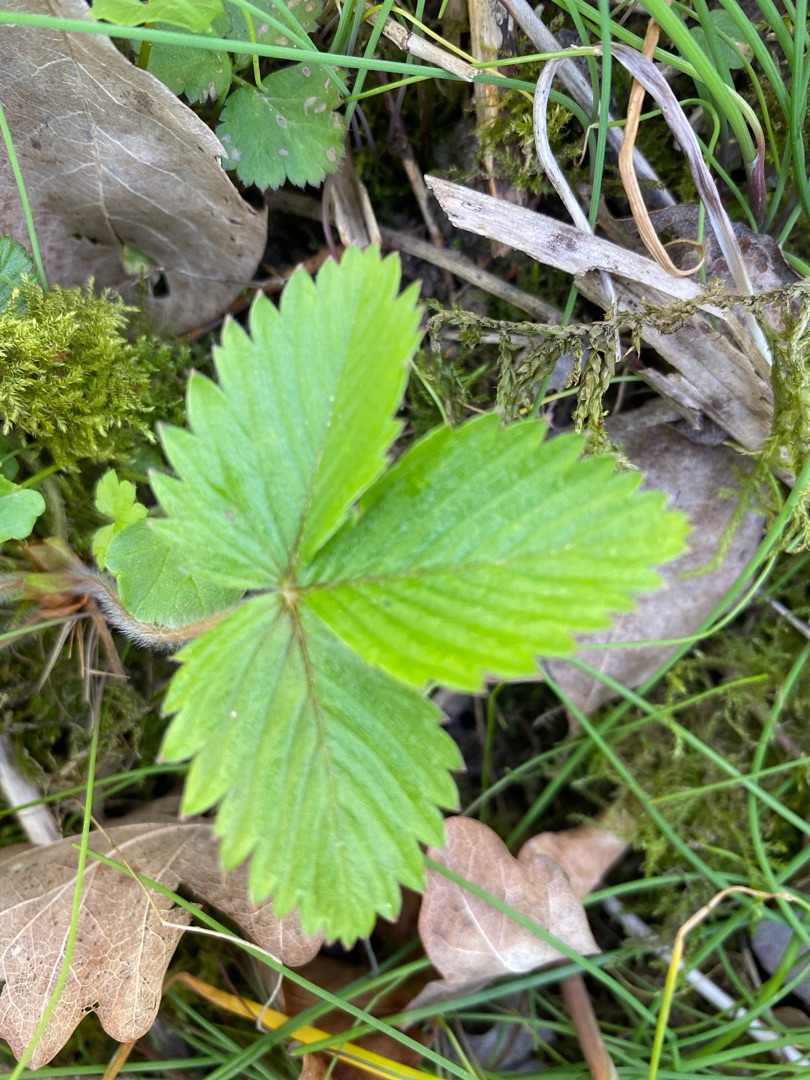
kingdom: Plantae
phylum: Tracheophyta
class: Magnoliopsida
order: Rosales
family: Rosaceae
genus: Fragaria
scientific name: Fragaria vesca
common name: Skov-jordbær
